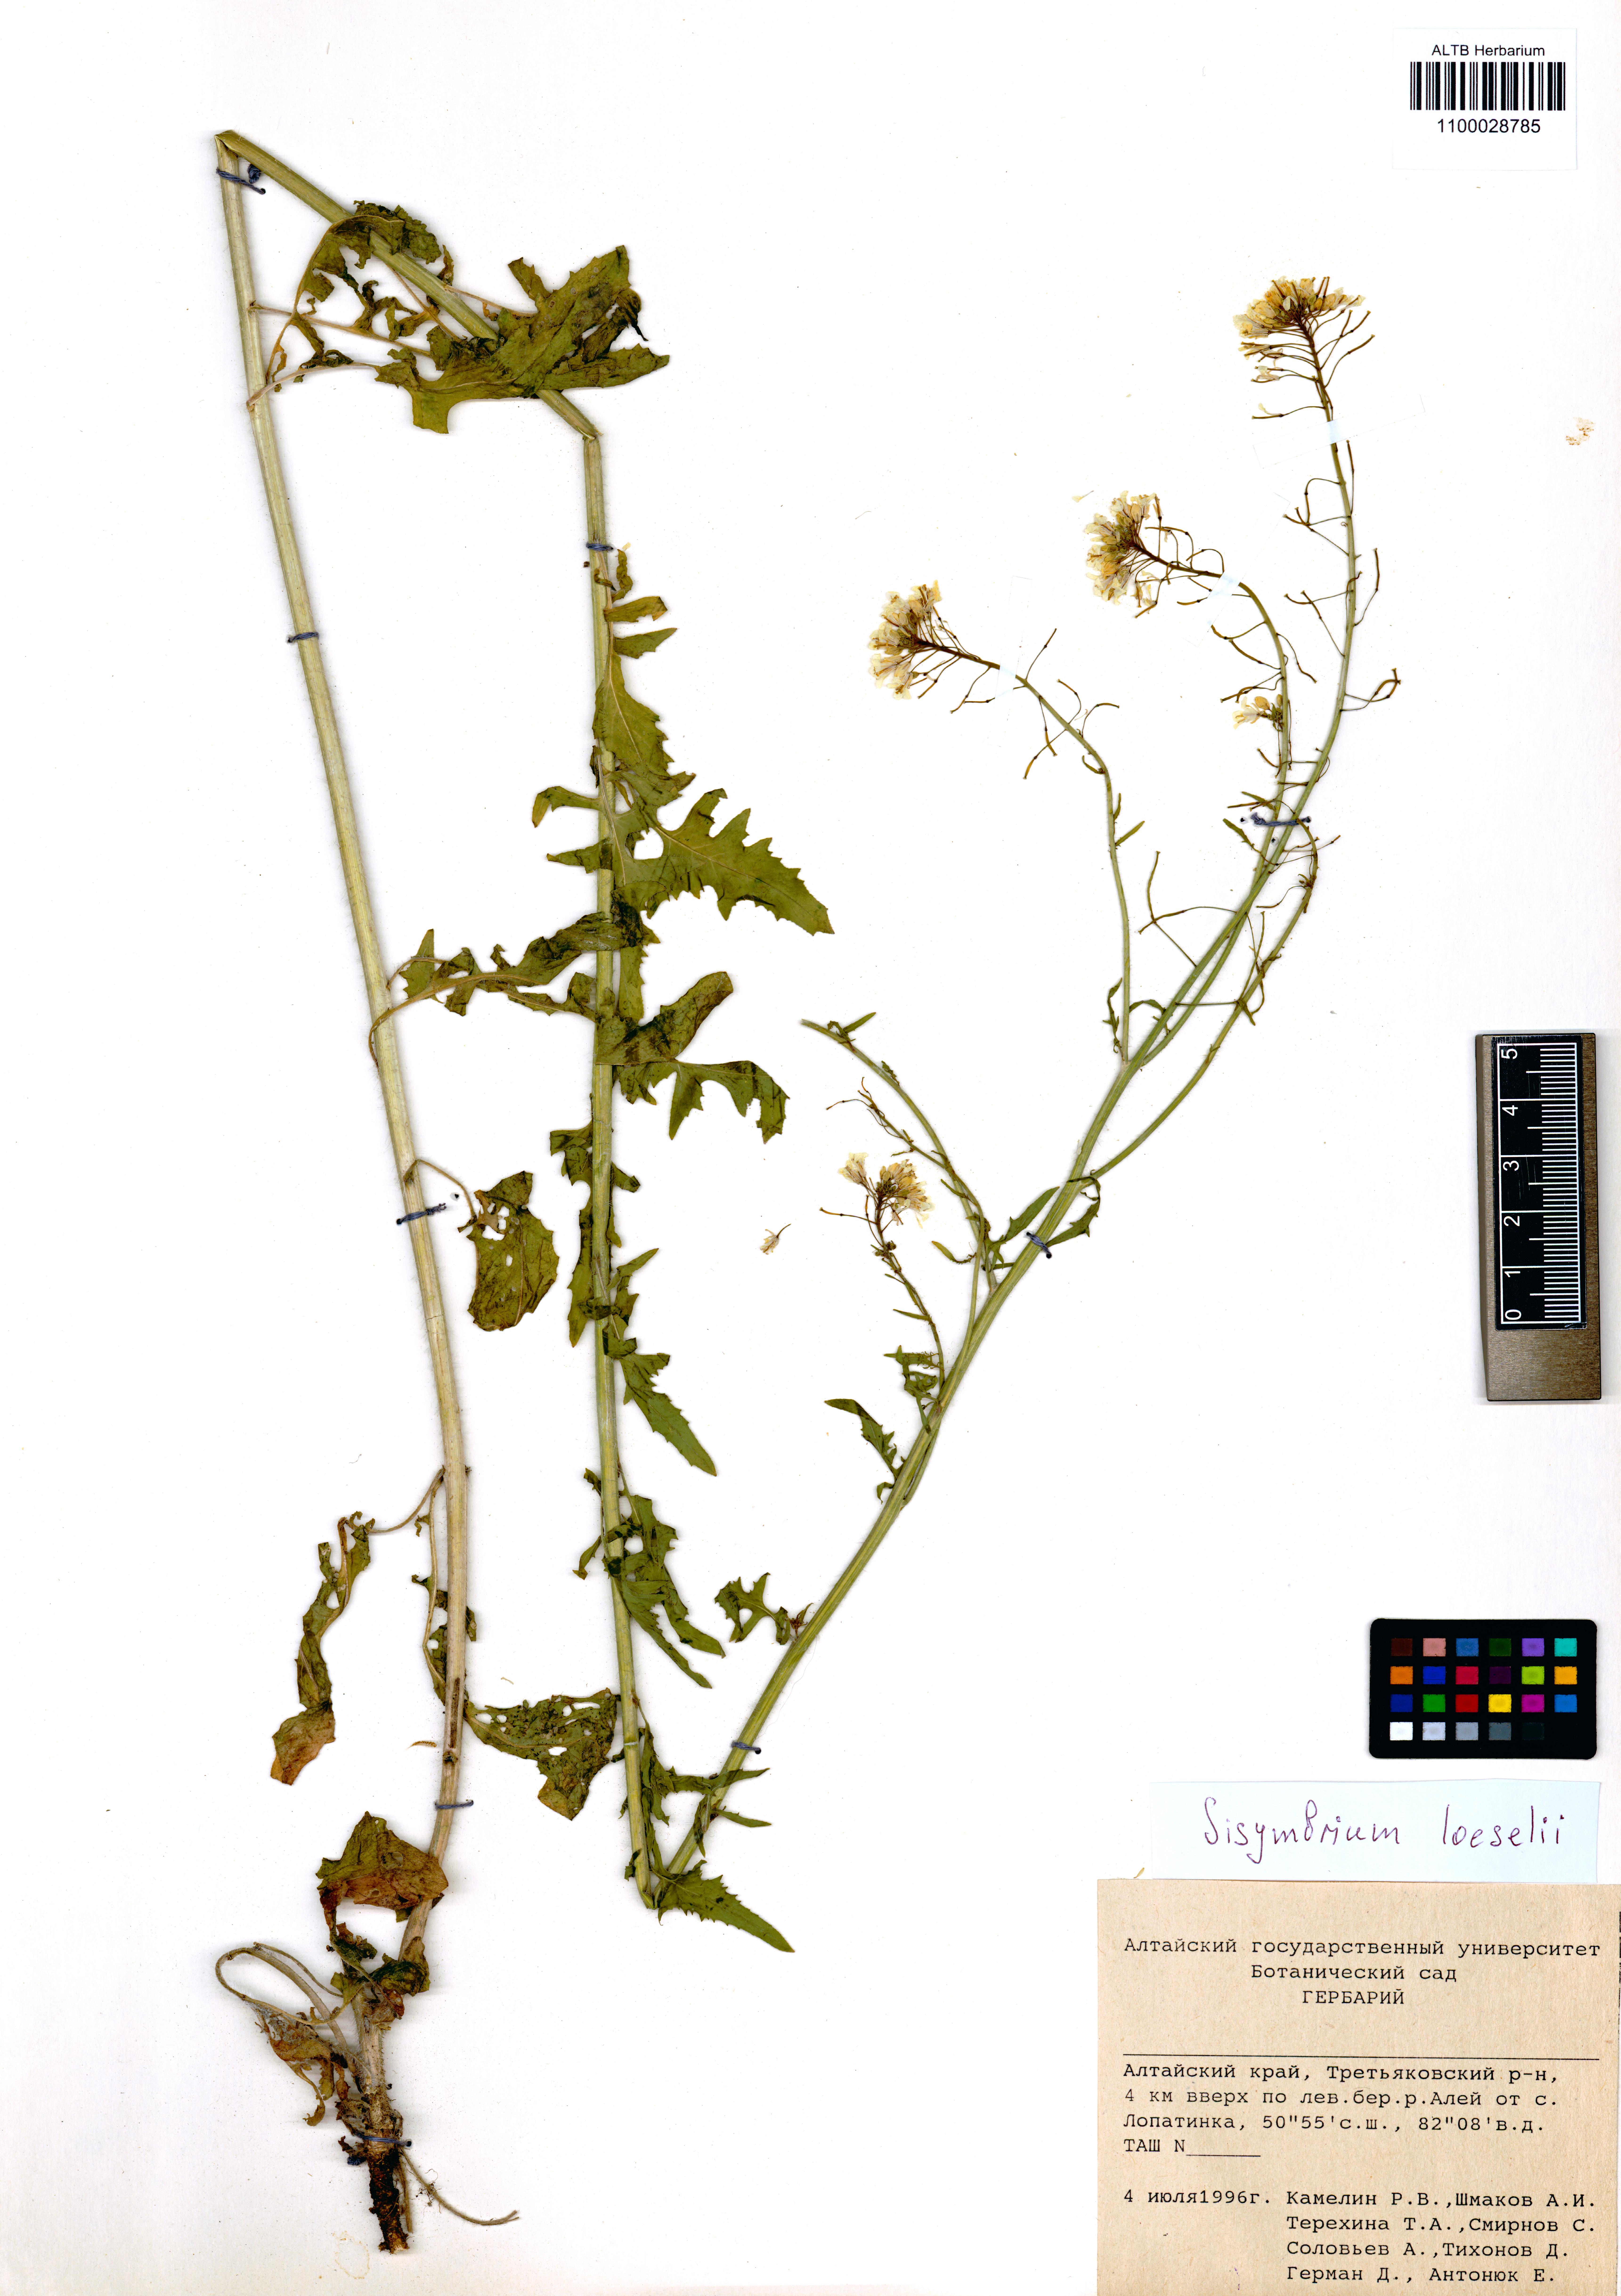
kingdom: Plantae
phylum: Tracheophyta
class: Magnoliopsida
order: Brassicales
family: Brassicaceae
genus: Sisymbrium
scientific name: Sisymbrium loeselii
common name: False london-rocket
